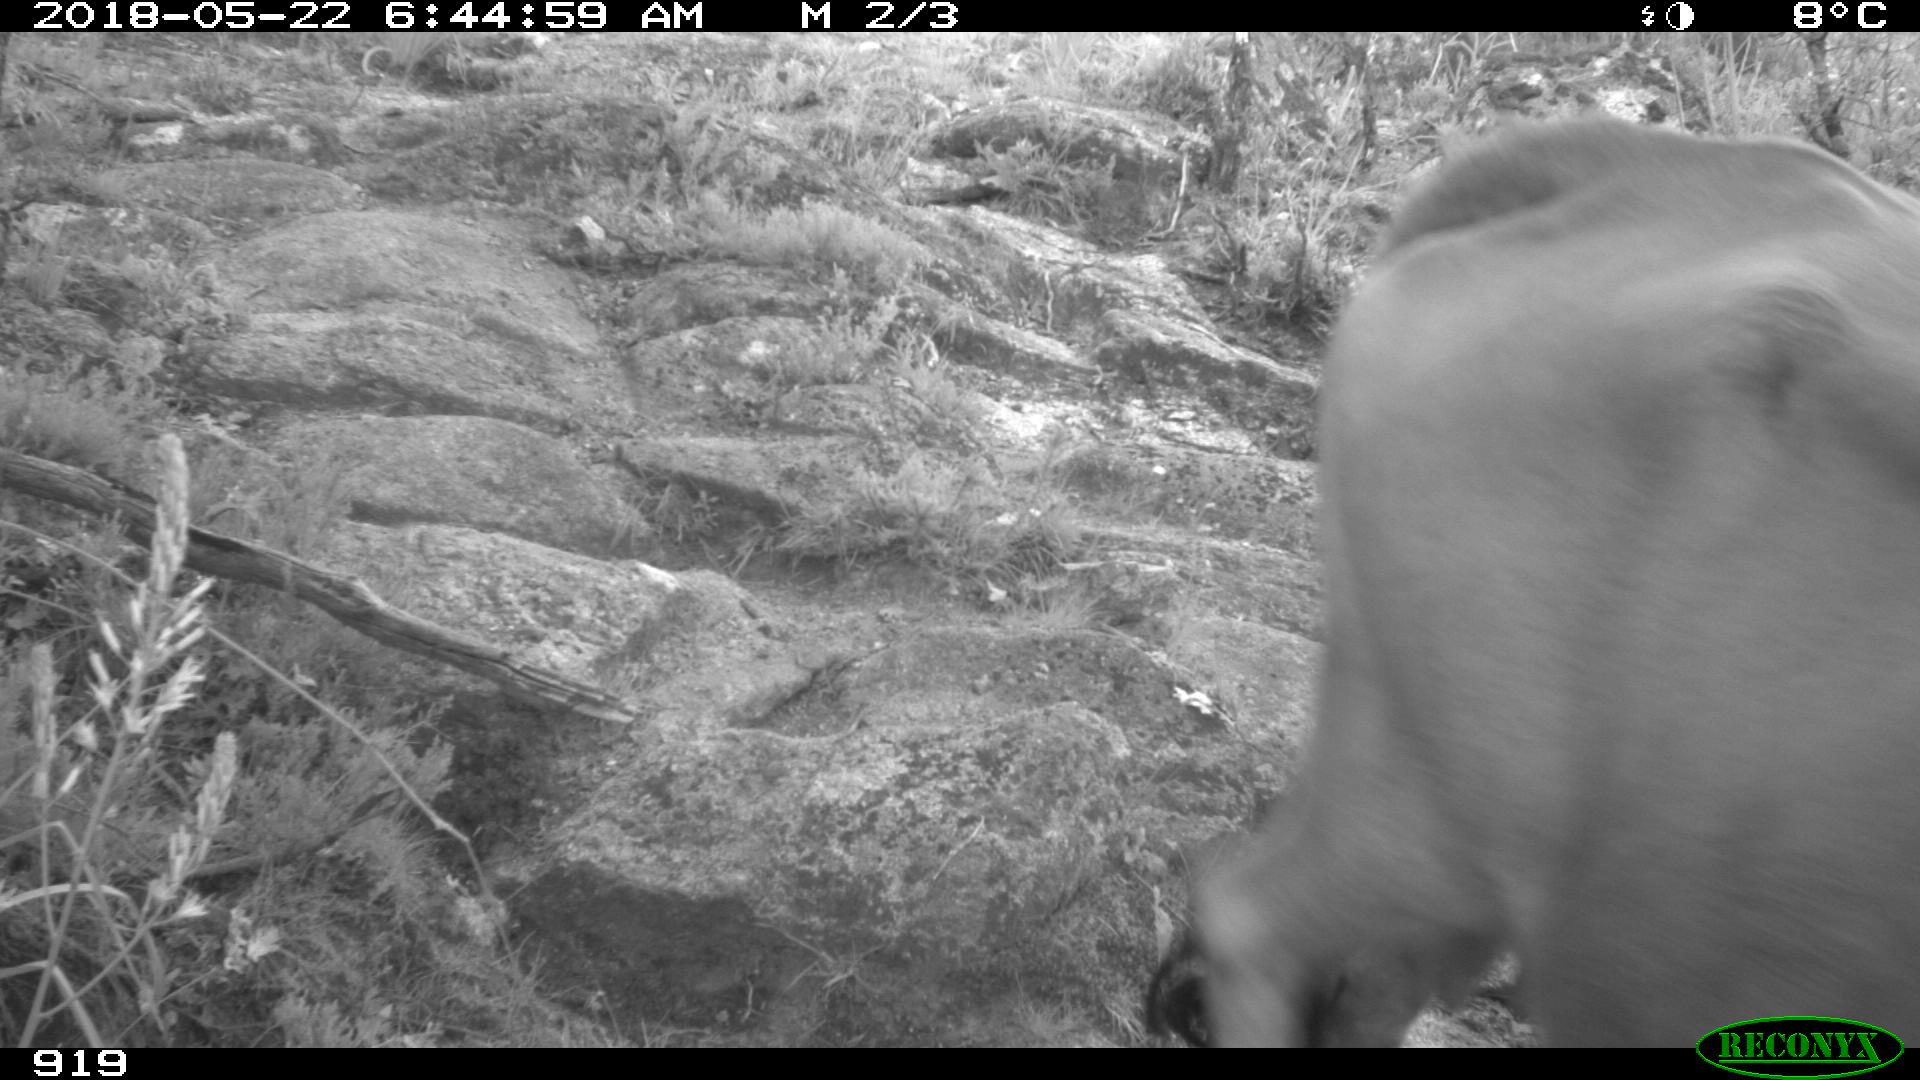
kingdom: Animalia
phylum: Chordata
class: Mammalia
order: Artiodactyla
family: Bovidae
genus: Bos
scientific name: Bos taurus
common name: Domesticated cattle
